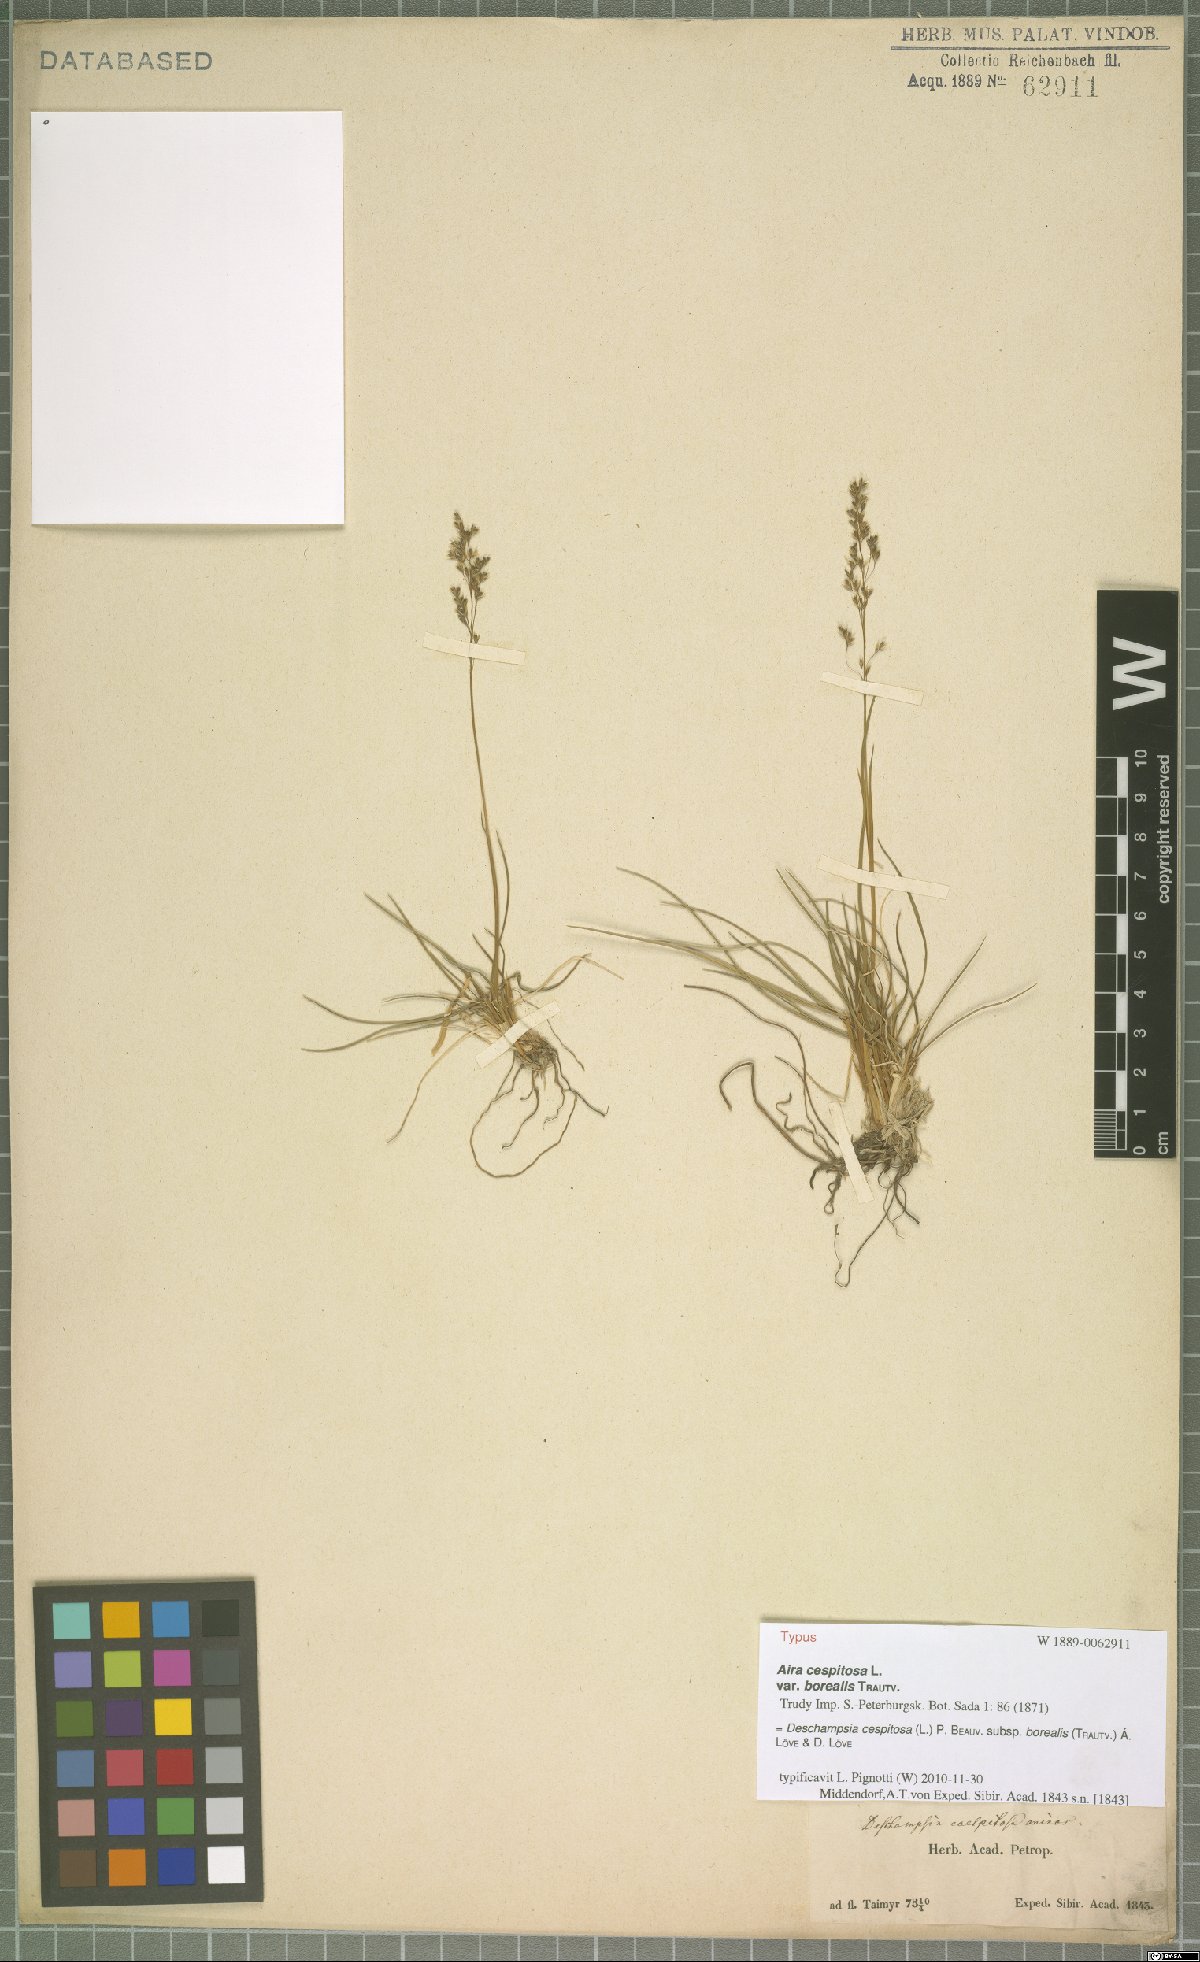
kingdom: Plantae
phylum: Tracheophyta
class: Liliopsida
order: Poales
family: Poaceae
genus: Deschampsia
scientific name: Deschampsia cespitosa
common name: Tufted hair-grass
